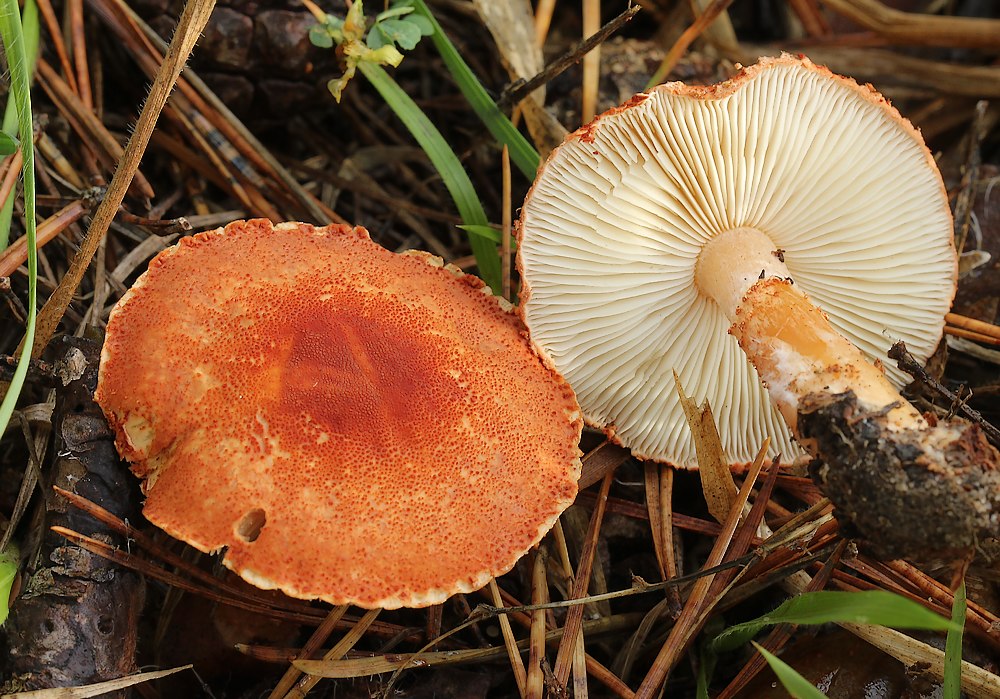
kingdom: Fungi
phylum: Basidiomycota
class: Agaricomycetes
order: Agaricales
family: Agaricaceae
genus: Cystodermella
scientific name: Cystodermella cinnabarina
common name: cinnober-grynhat
